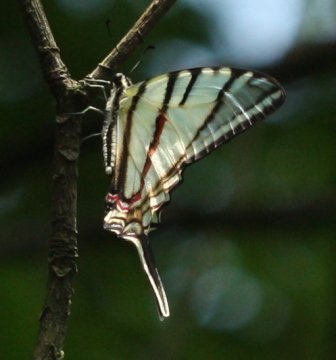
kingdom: Animalia
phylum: Arthropoda
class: Insecta
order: Lepidoptera
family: Papilionidae
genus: Eurytides
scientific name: Eurytides
